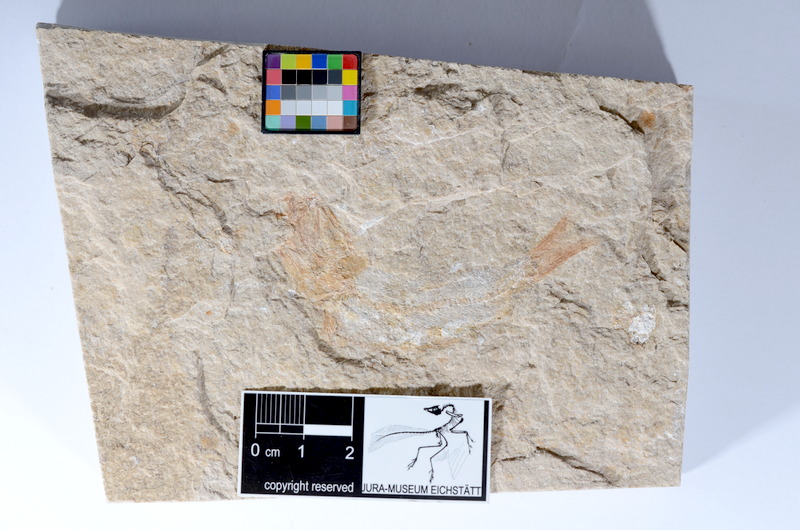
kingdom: Animalia
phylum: Chordata
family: Ascalaboidae
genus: Tharsis
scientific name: Tharsis dubius
